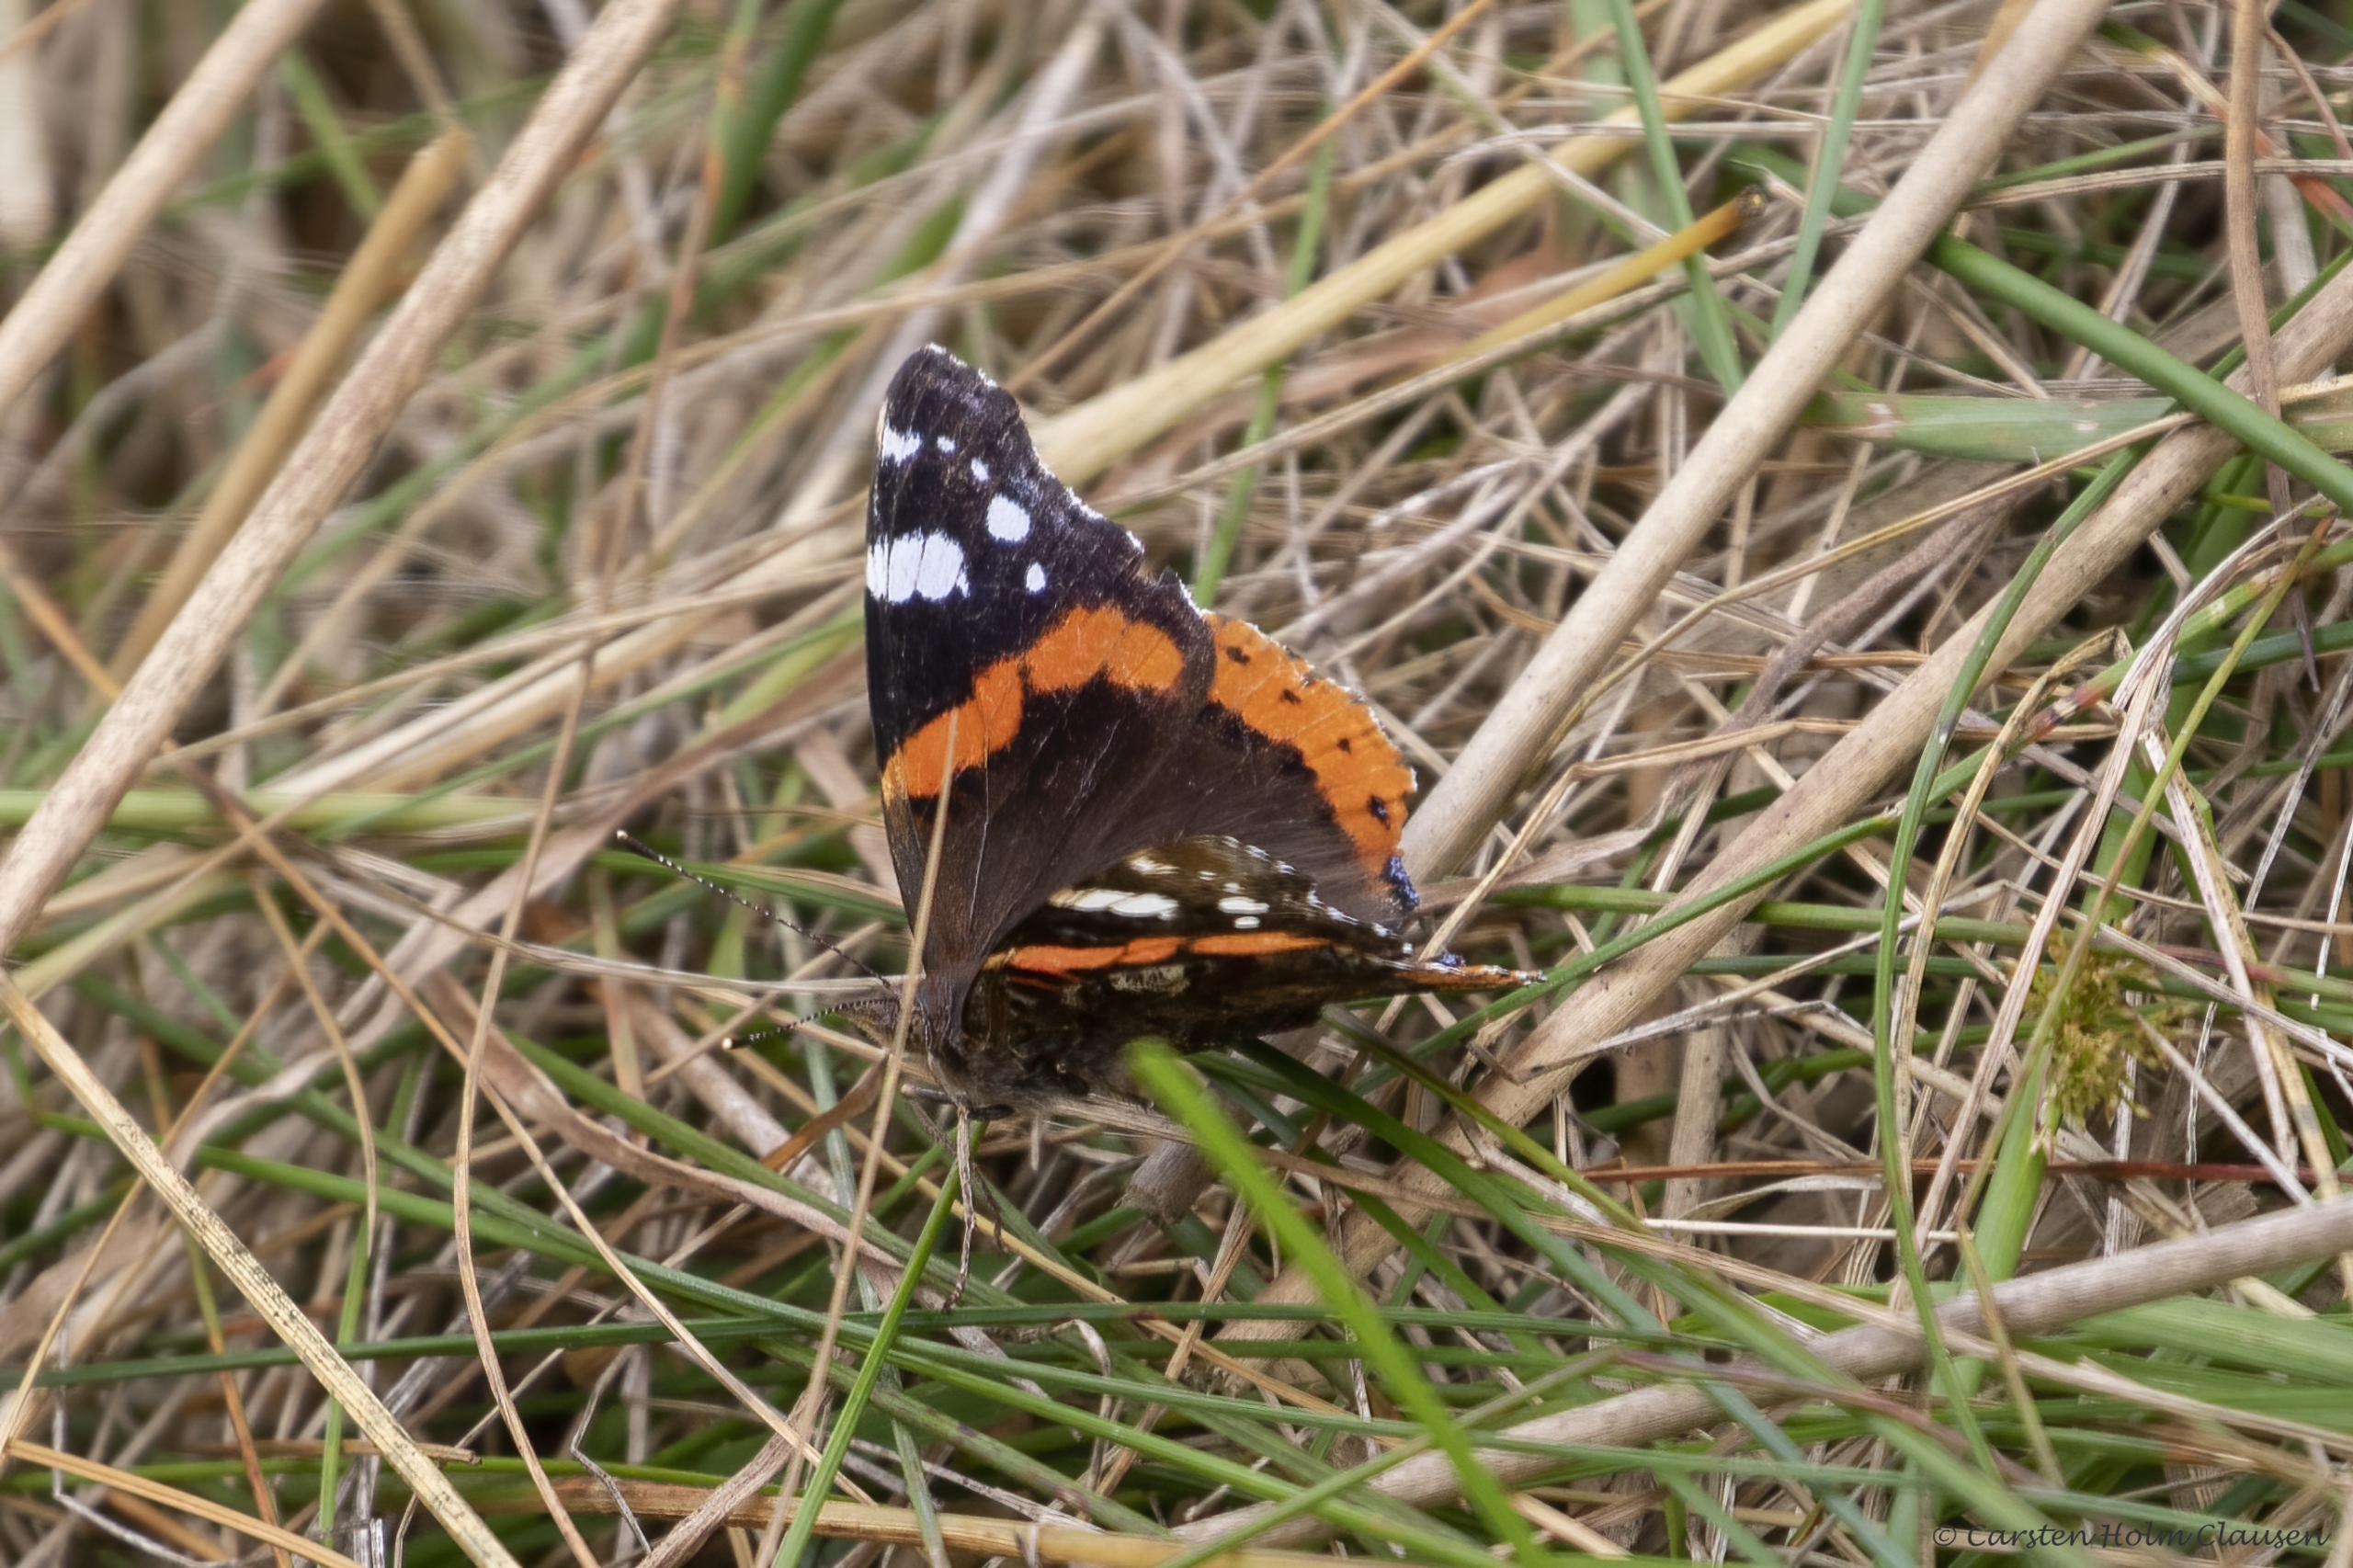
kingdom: Animalia
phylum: Arthropoda
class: Insecta
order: Lepidoptera
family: Nymphalidae
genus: Vanessa
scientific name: Vanessa atalanta
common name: Admiral
